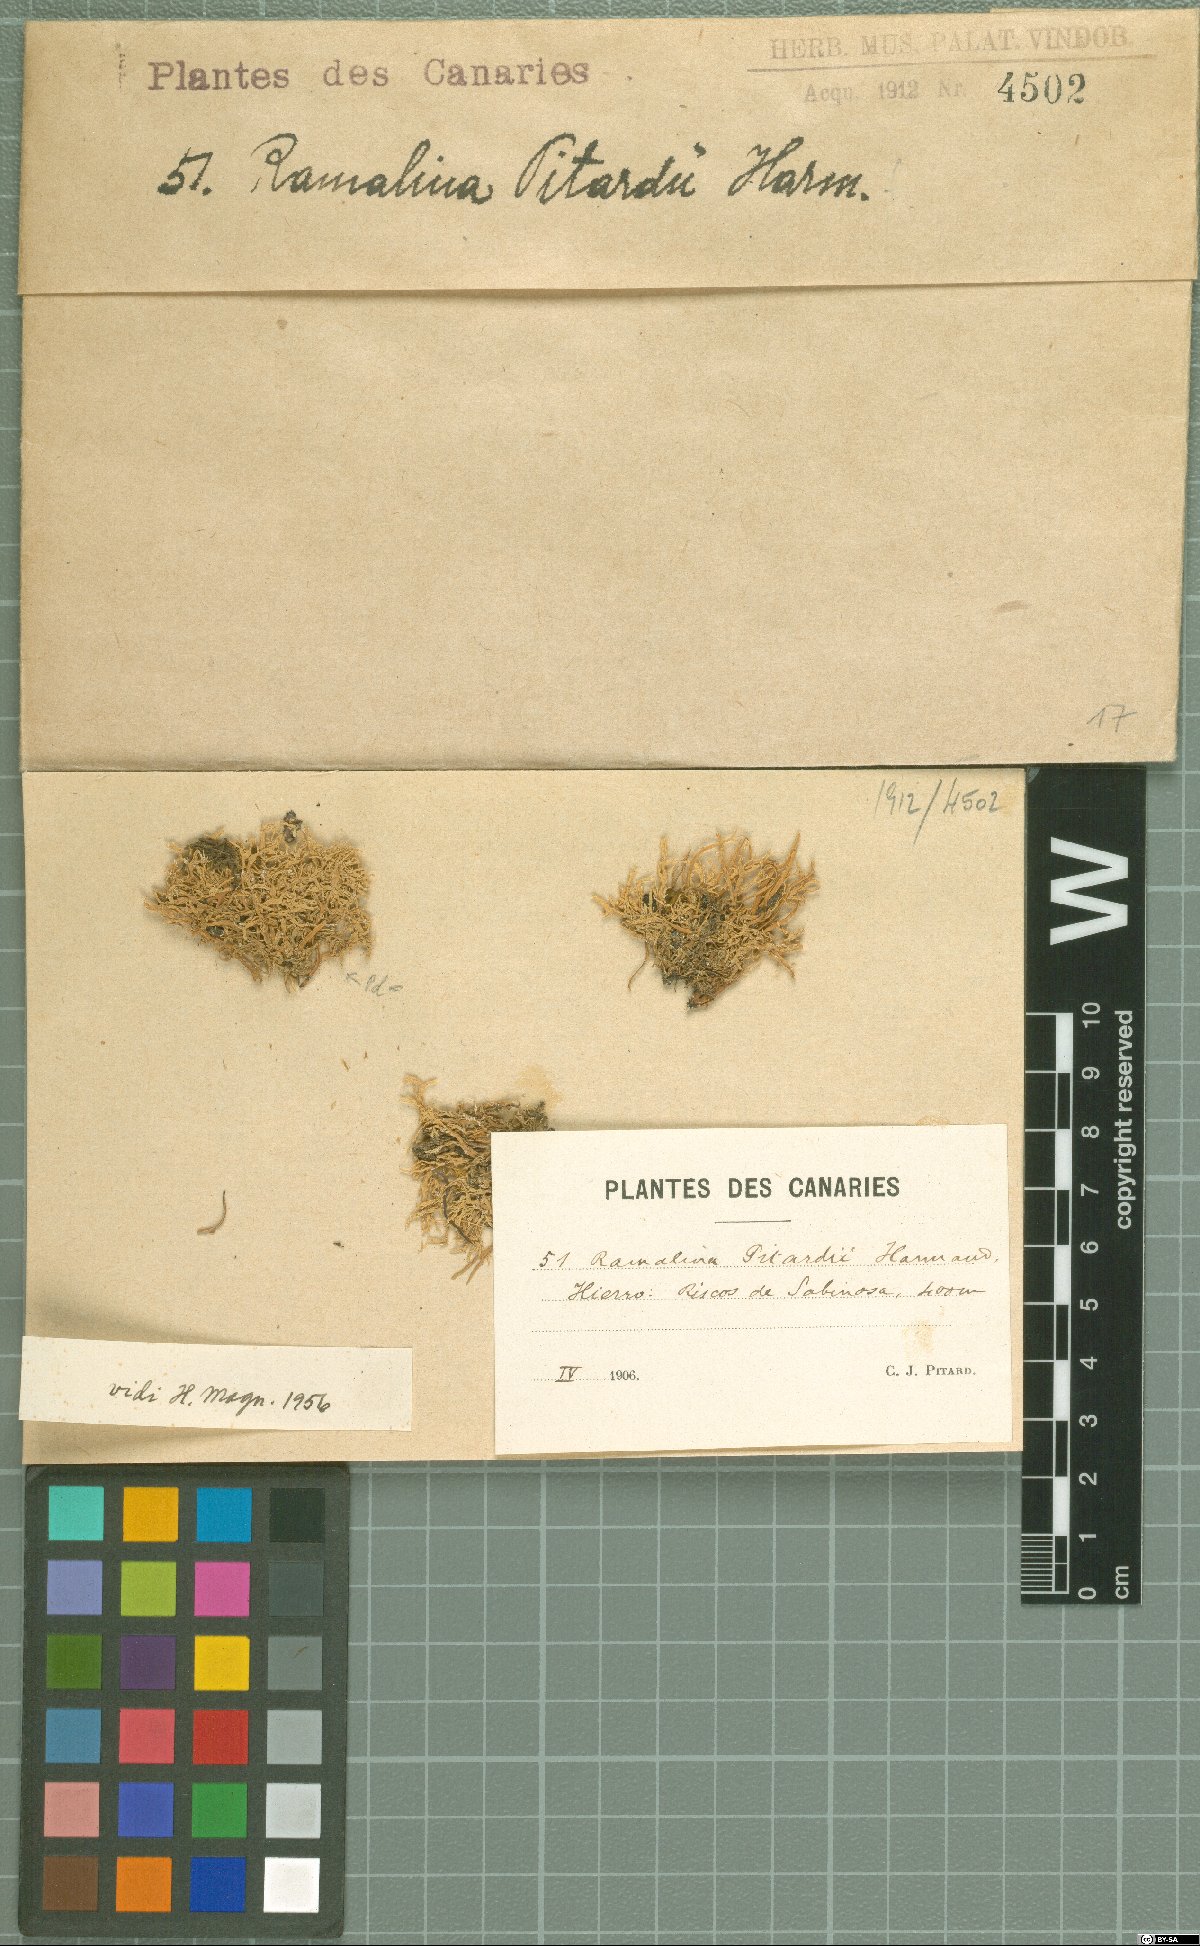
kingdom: Fungi
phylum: Ascomycota
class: Lecanoromycetes
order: Lecanorales
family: Ramalinaceae
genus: Ramalina
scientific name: Ramalina pitardii
